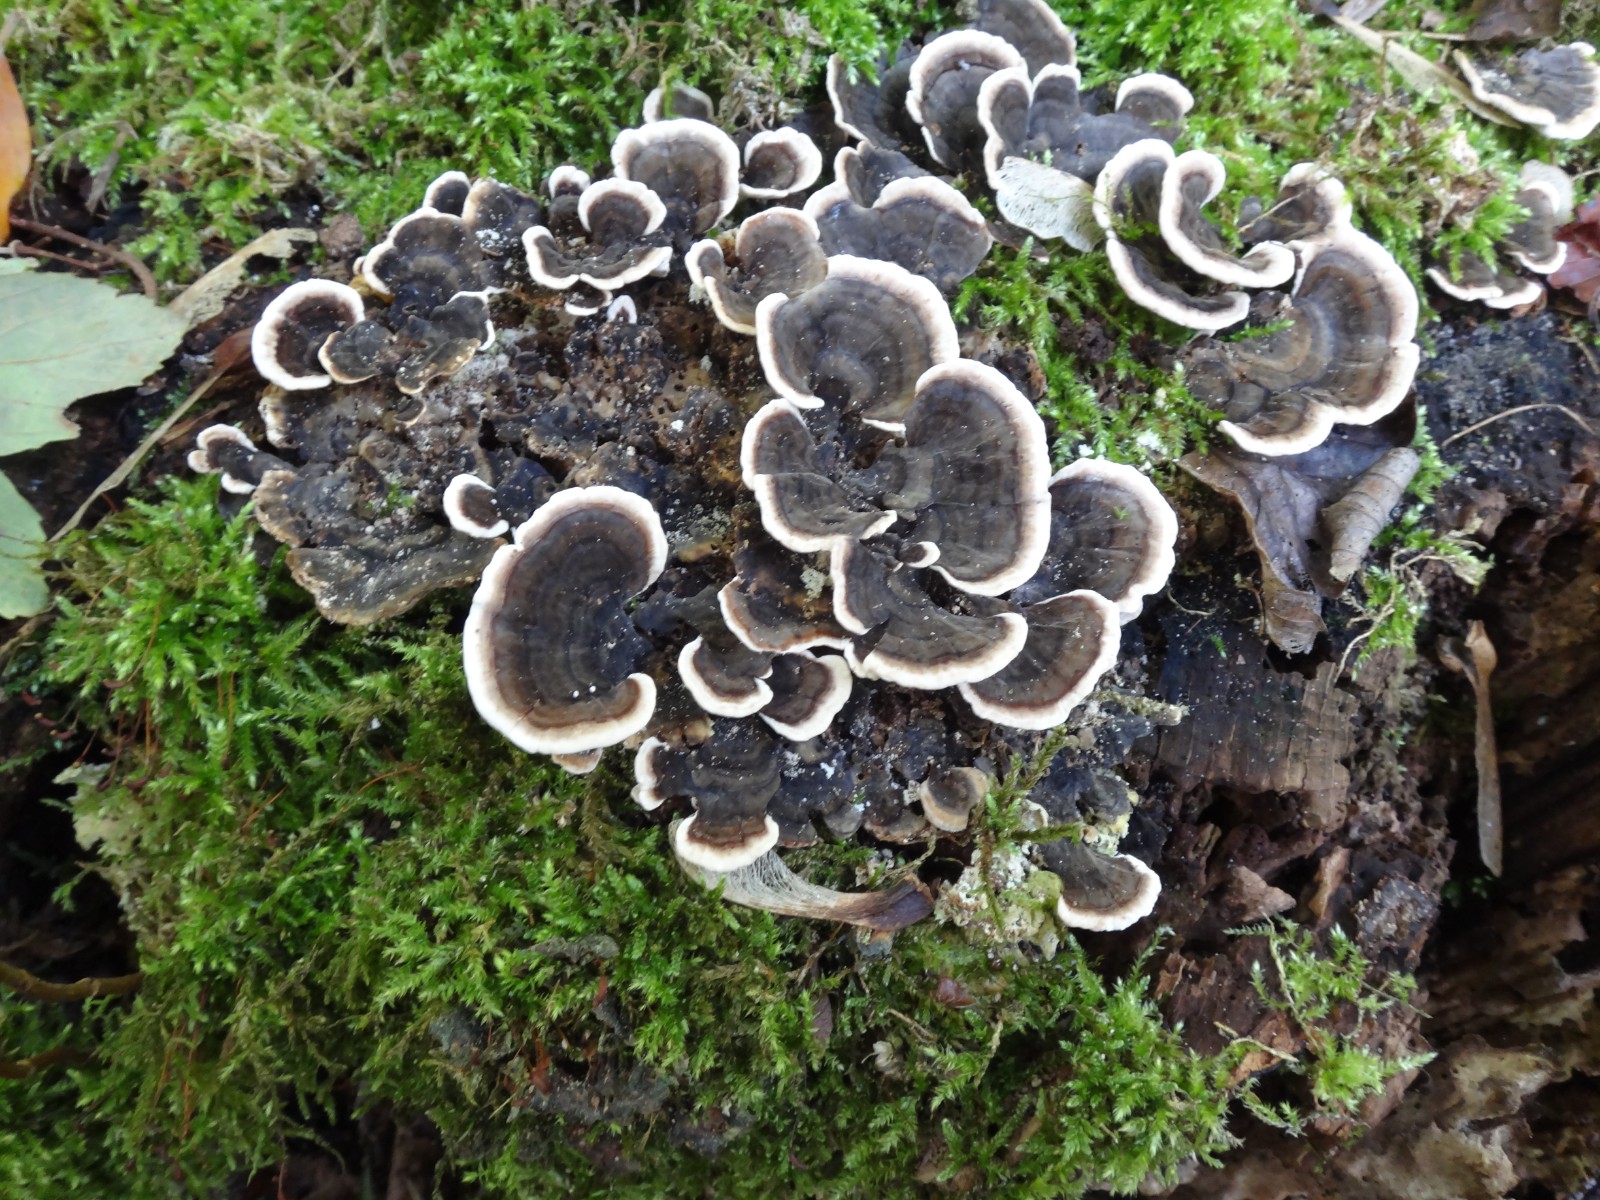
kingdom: Fungi
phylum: Basidiomycota
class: Agaricomycetes
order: Polyporales
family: Polyporaceae
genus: Trametes
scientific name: Trametes versicolor
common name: broget læderporesvamp
